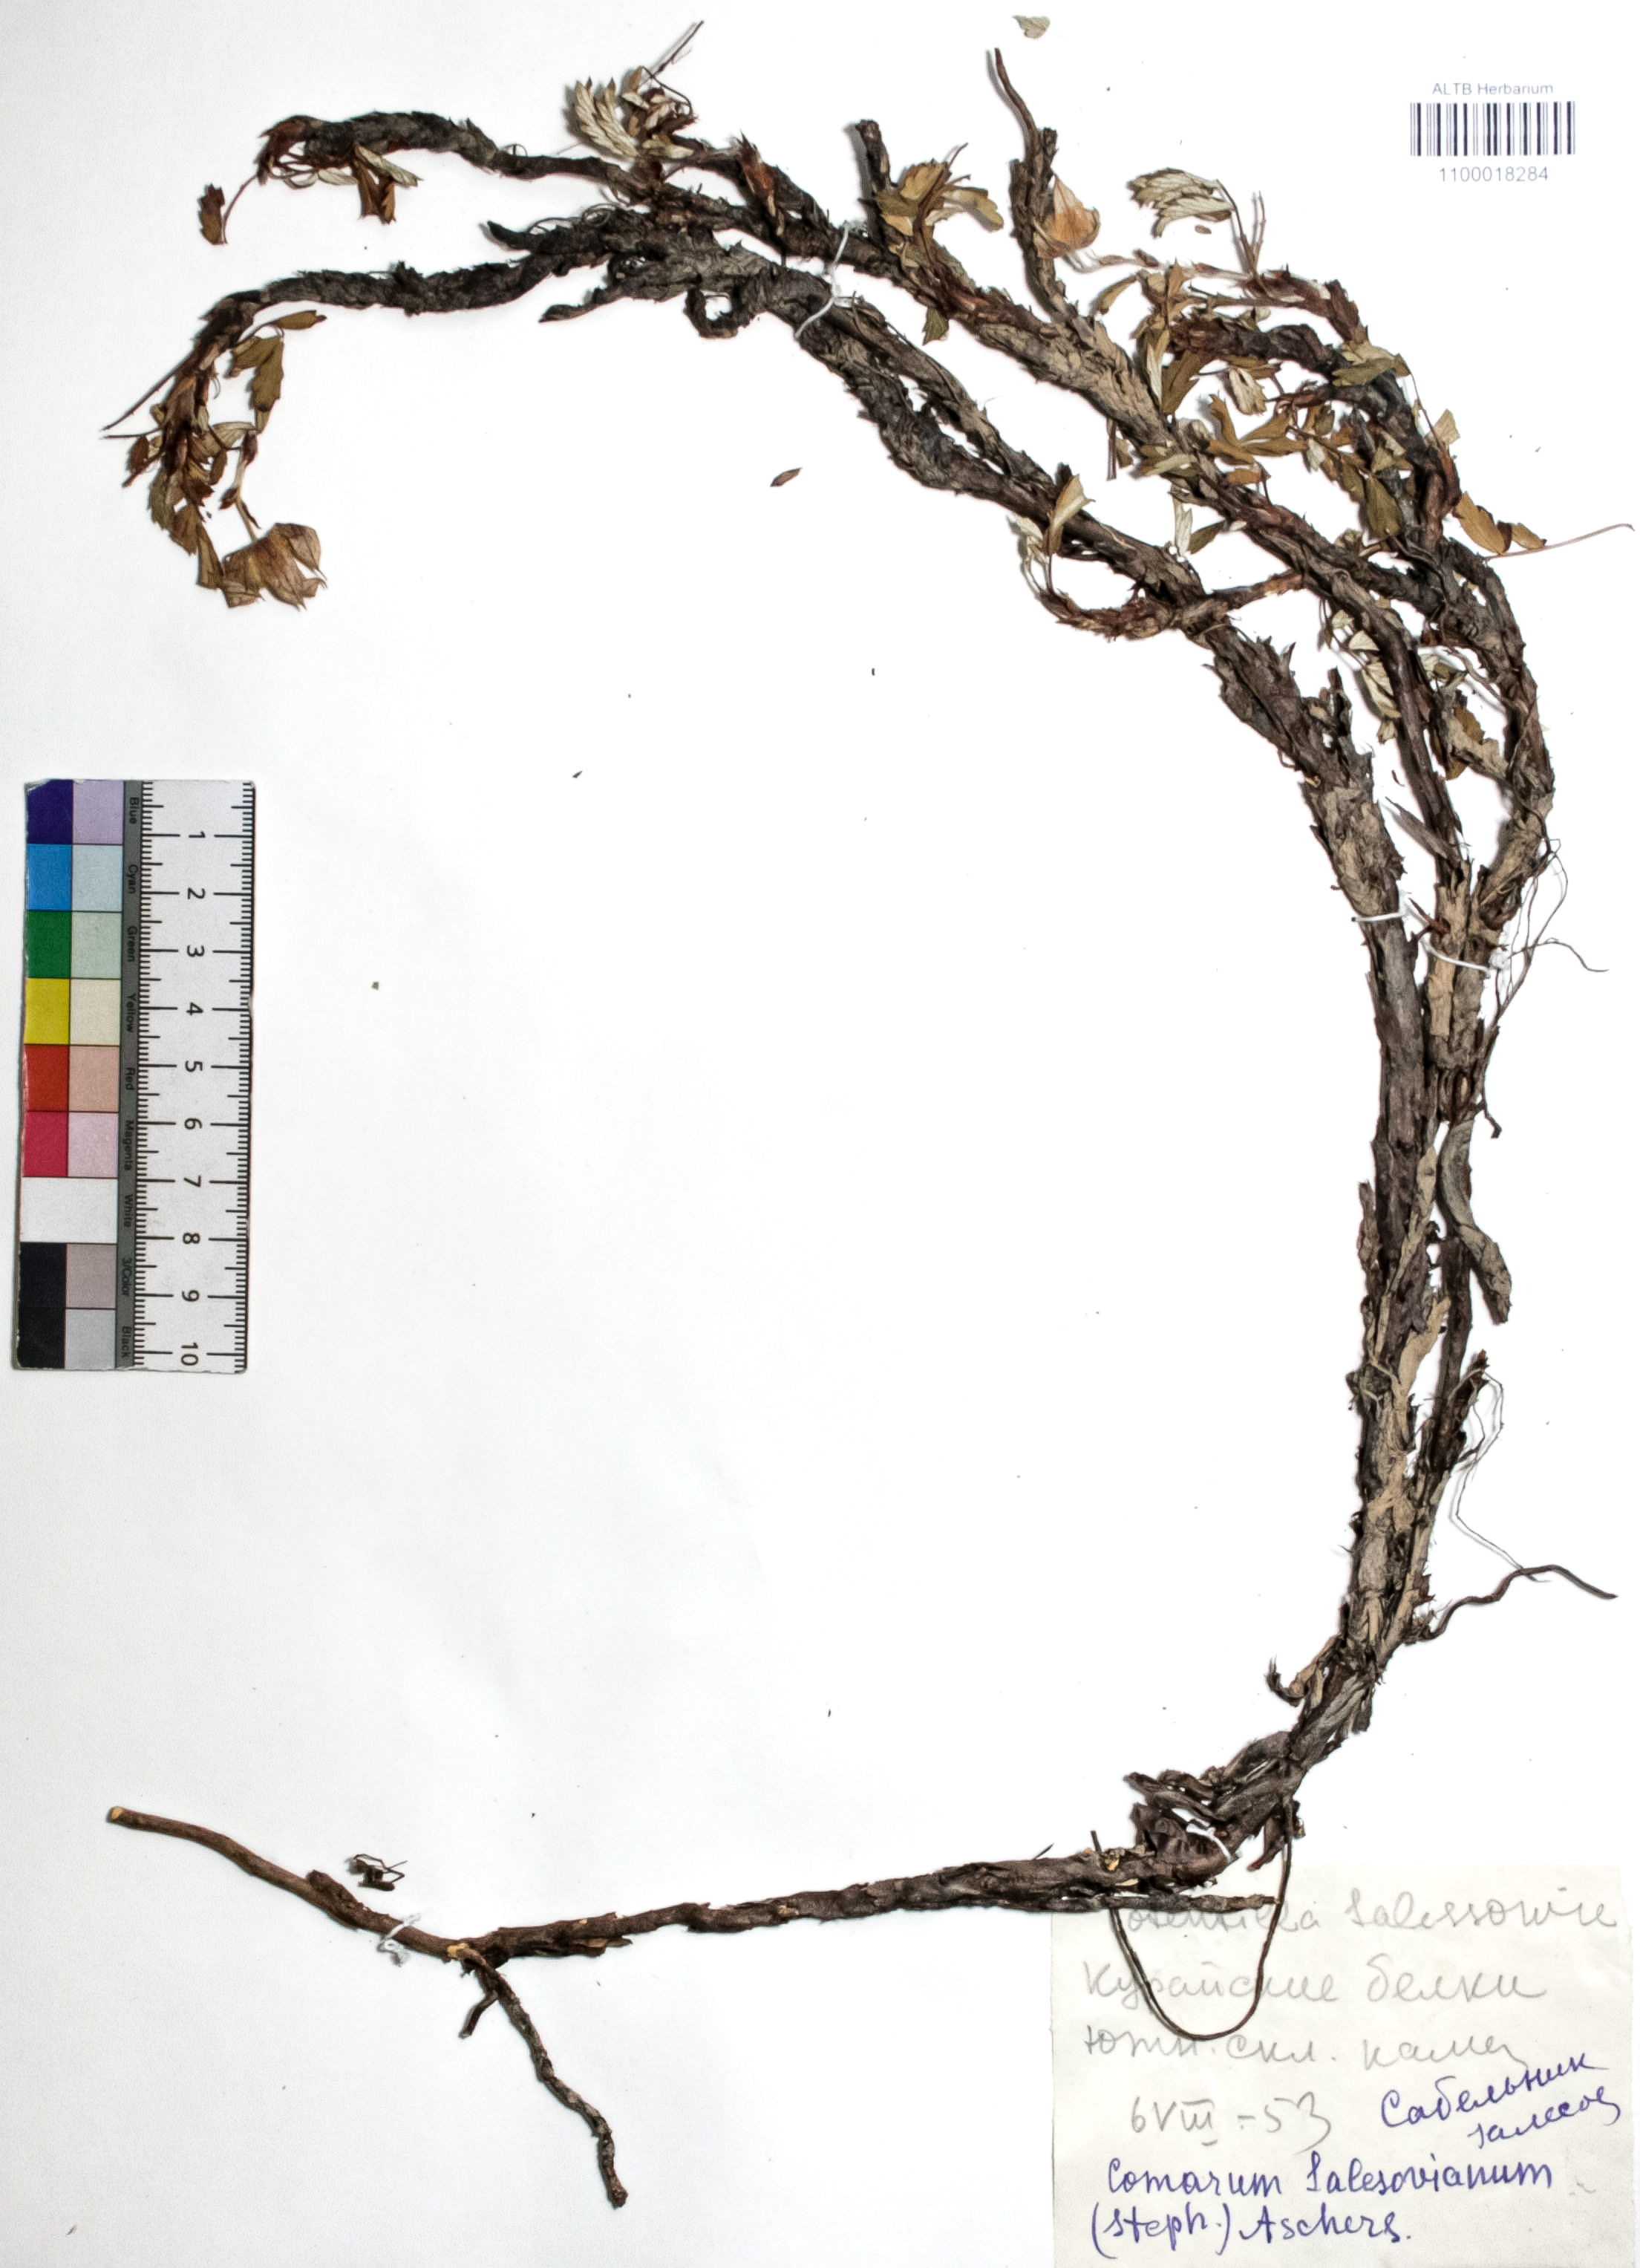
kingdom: Plantae
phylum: Tracheophyta
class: Magnoliopsida
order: Rosales
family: Rosaceae
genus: Farinopsis
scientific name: Farinopsis salesoviana
